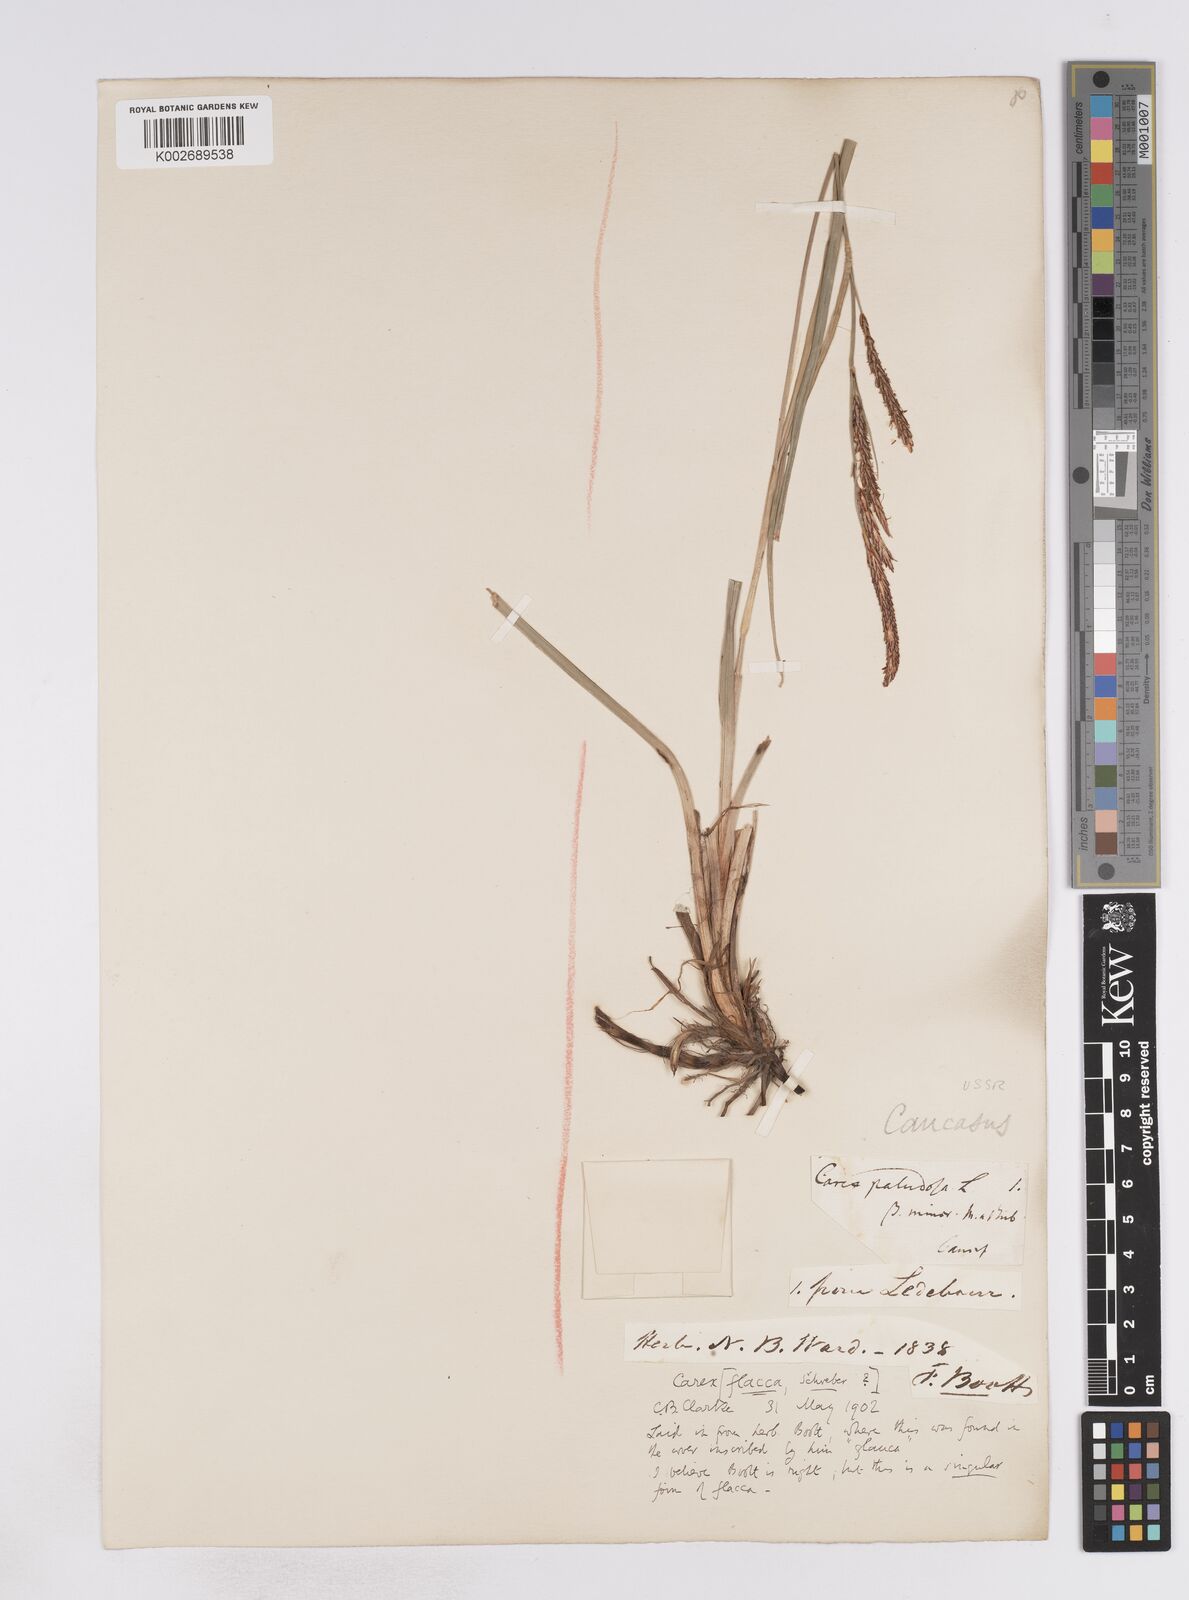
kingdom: Plantae
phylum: Tracheophyta
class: Liliopsida
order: Poales
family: Cyperaceae
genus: Carex
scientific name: Carex flacca
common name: Glaucous sedge
